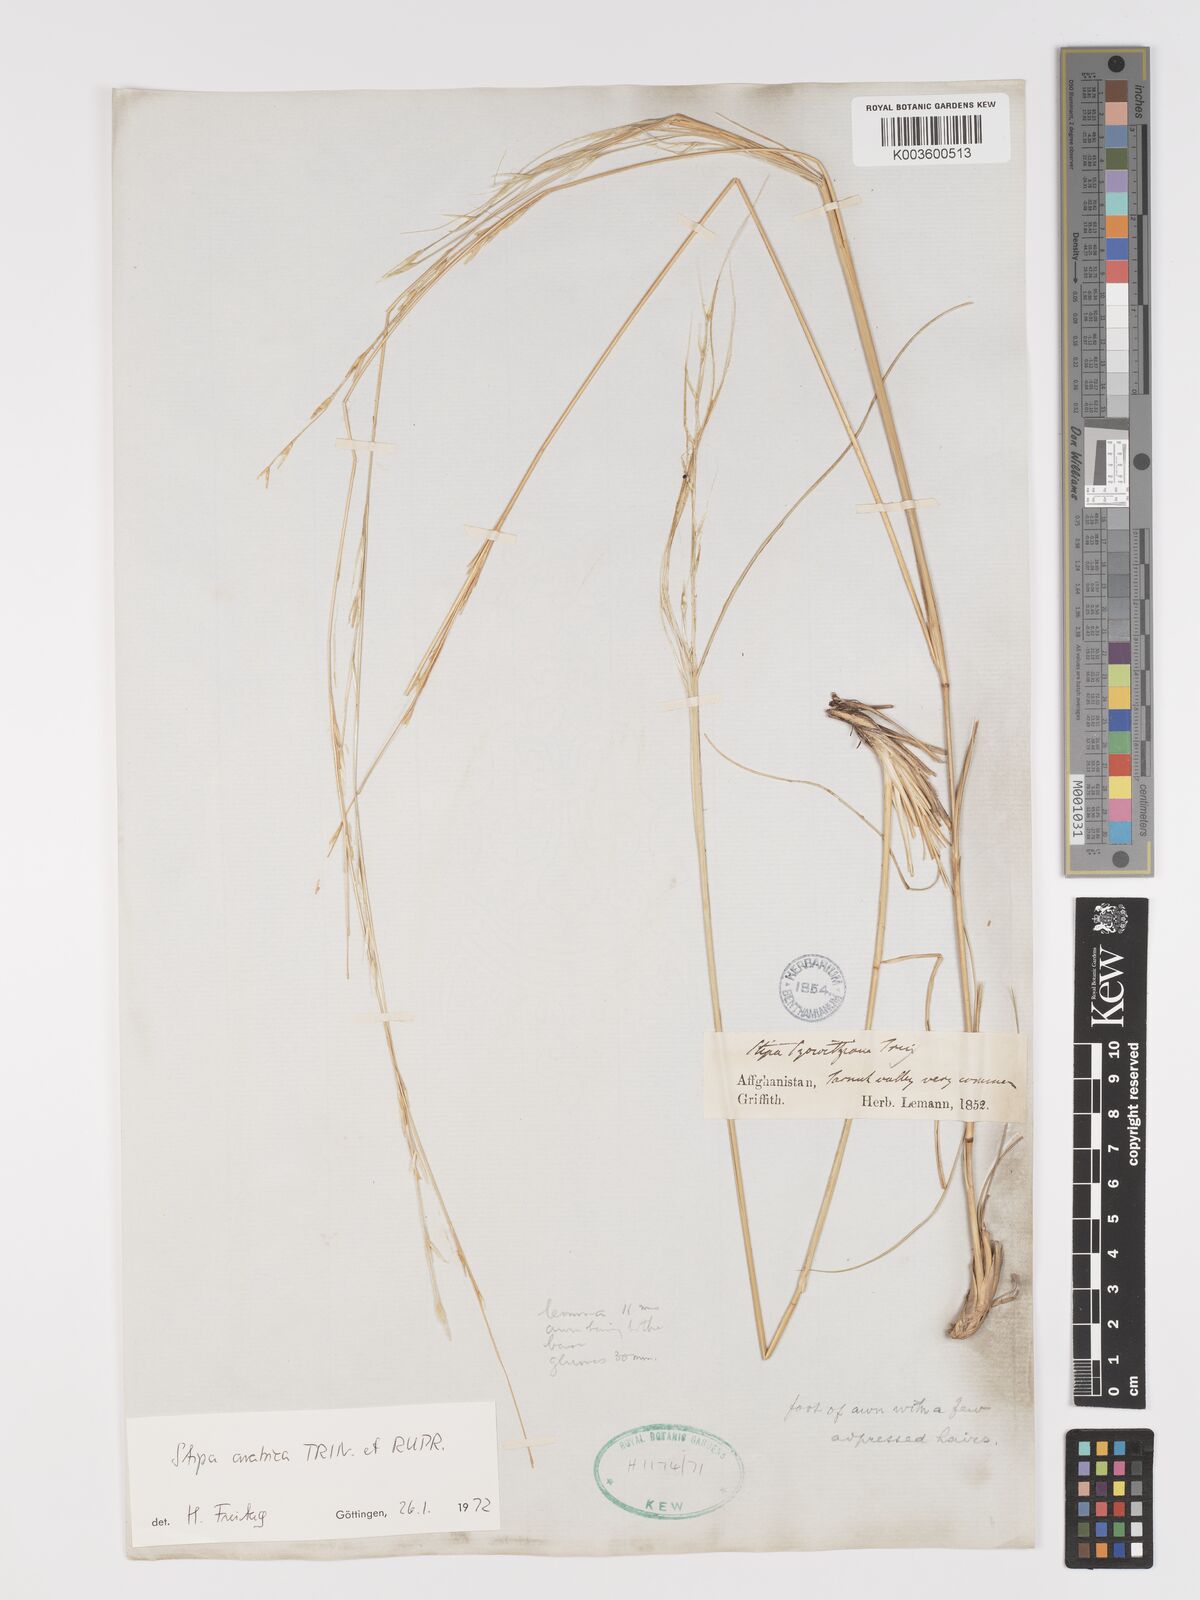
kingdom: Plantae
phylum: Tracheophyta
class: Liliopsida
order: Poales
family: Poaceae
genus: Stipa
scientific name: Stipa arabica
